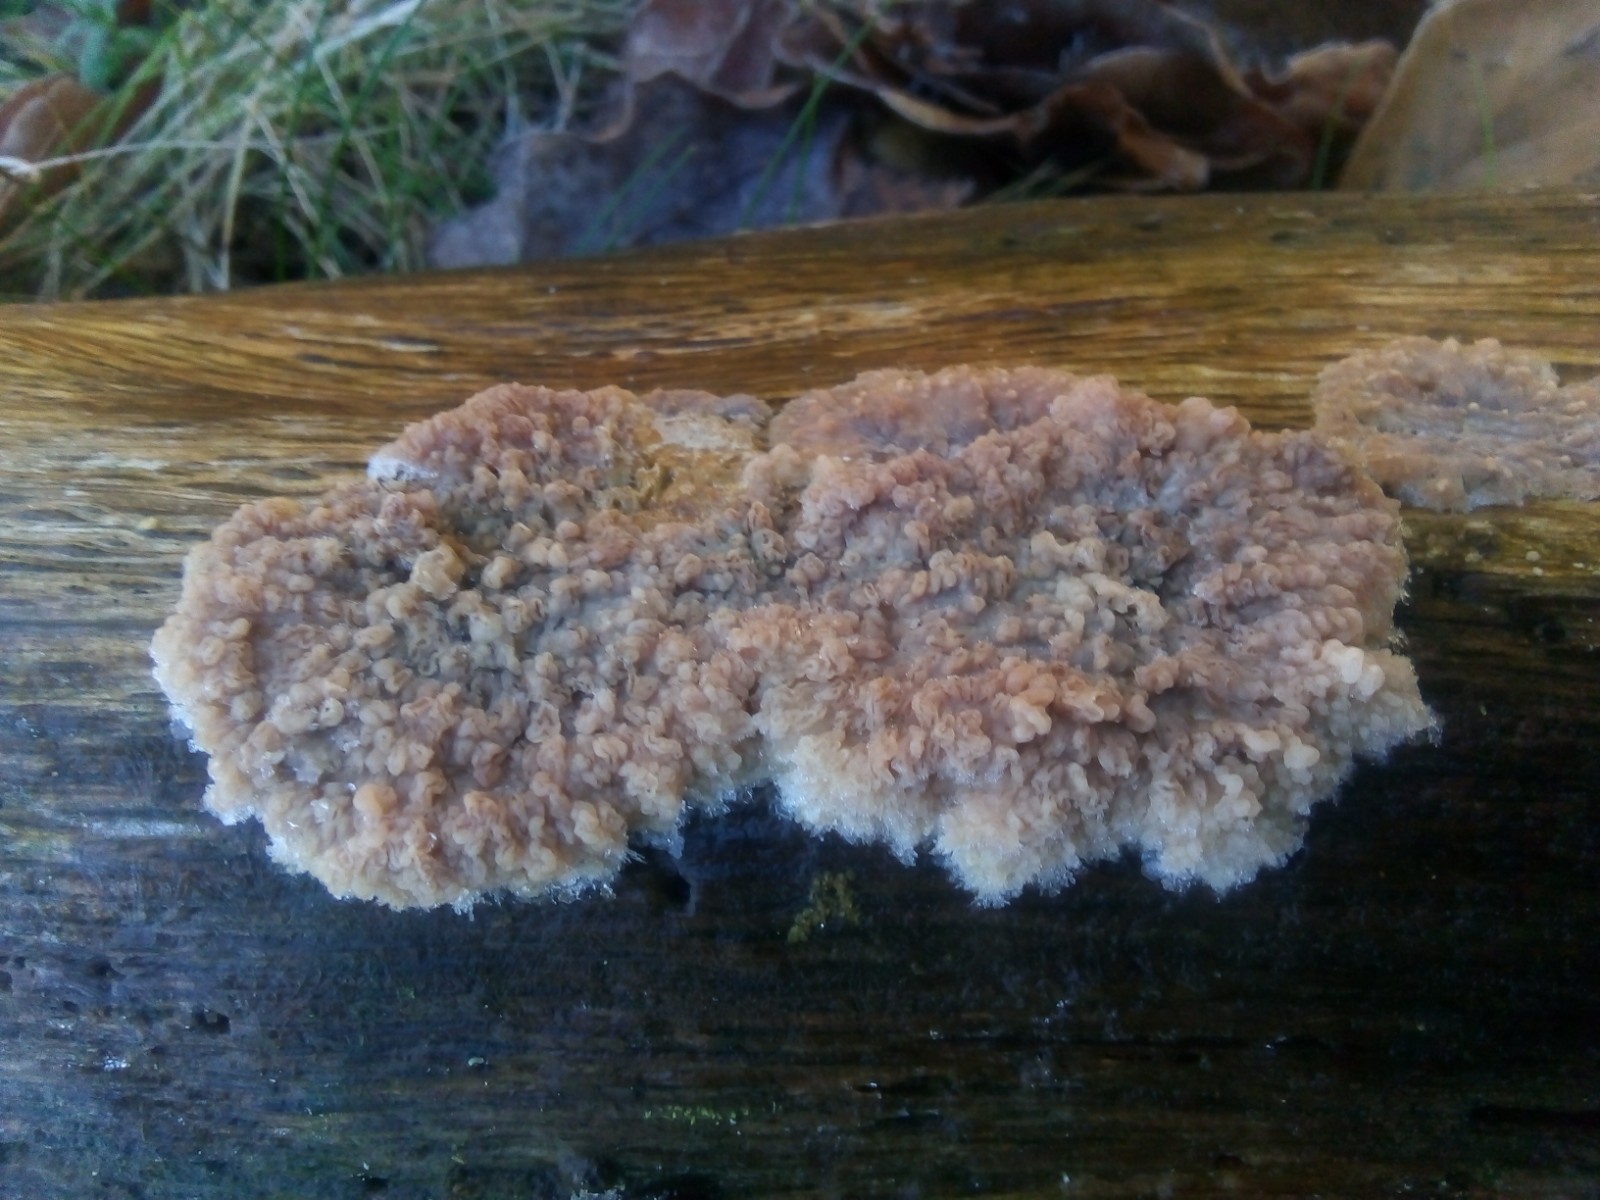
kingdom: Fungi
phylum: Basidiomycota
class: Agaricomycetes
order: Polyporales
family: Meruliaceae
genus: Phlebia
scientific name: Phlebia radiata
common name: stråle-åresvamp
